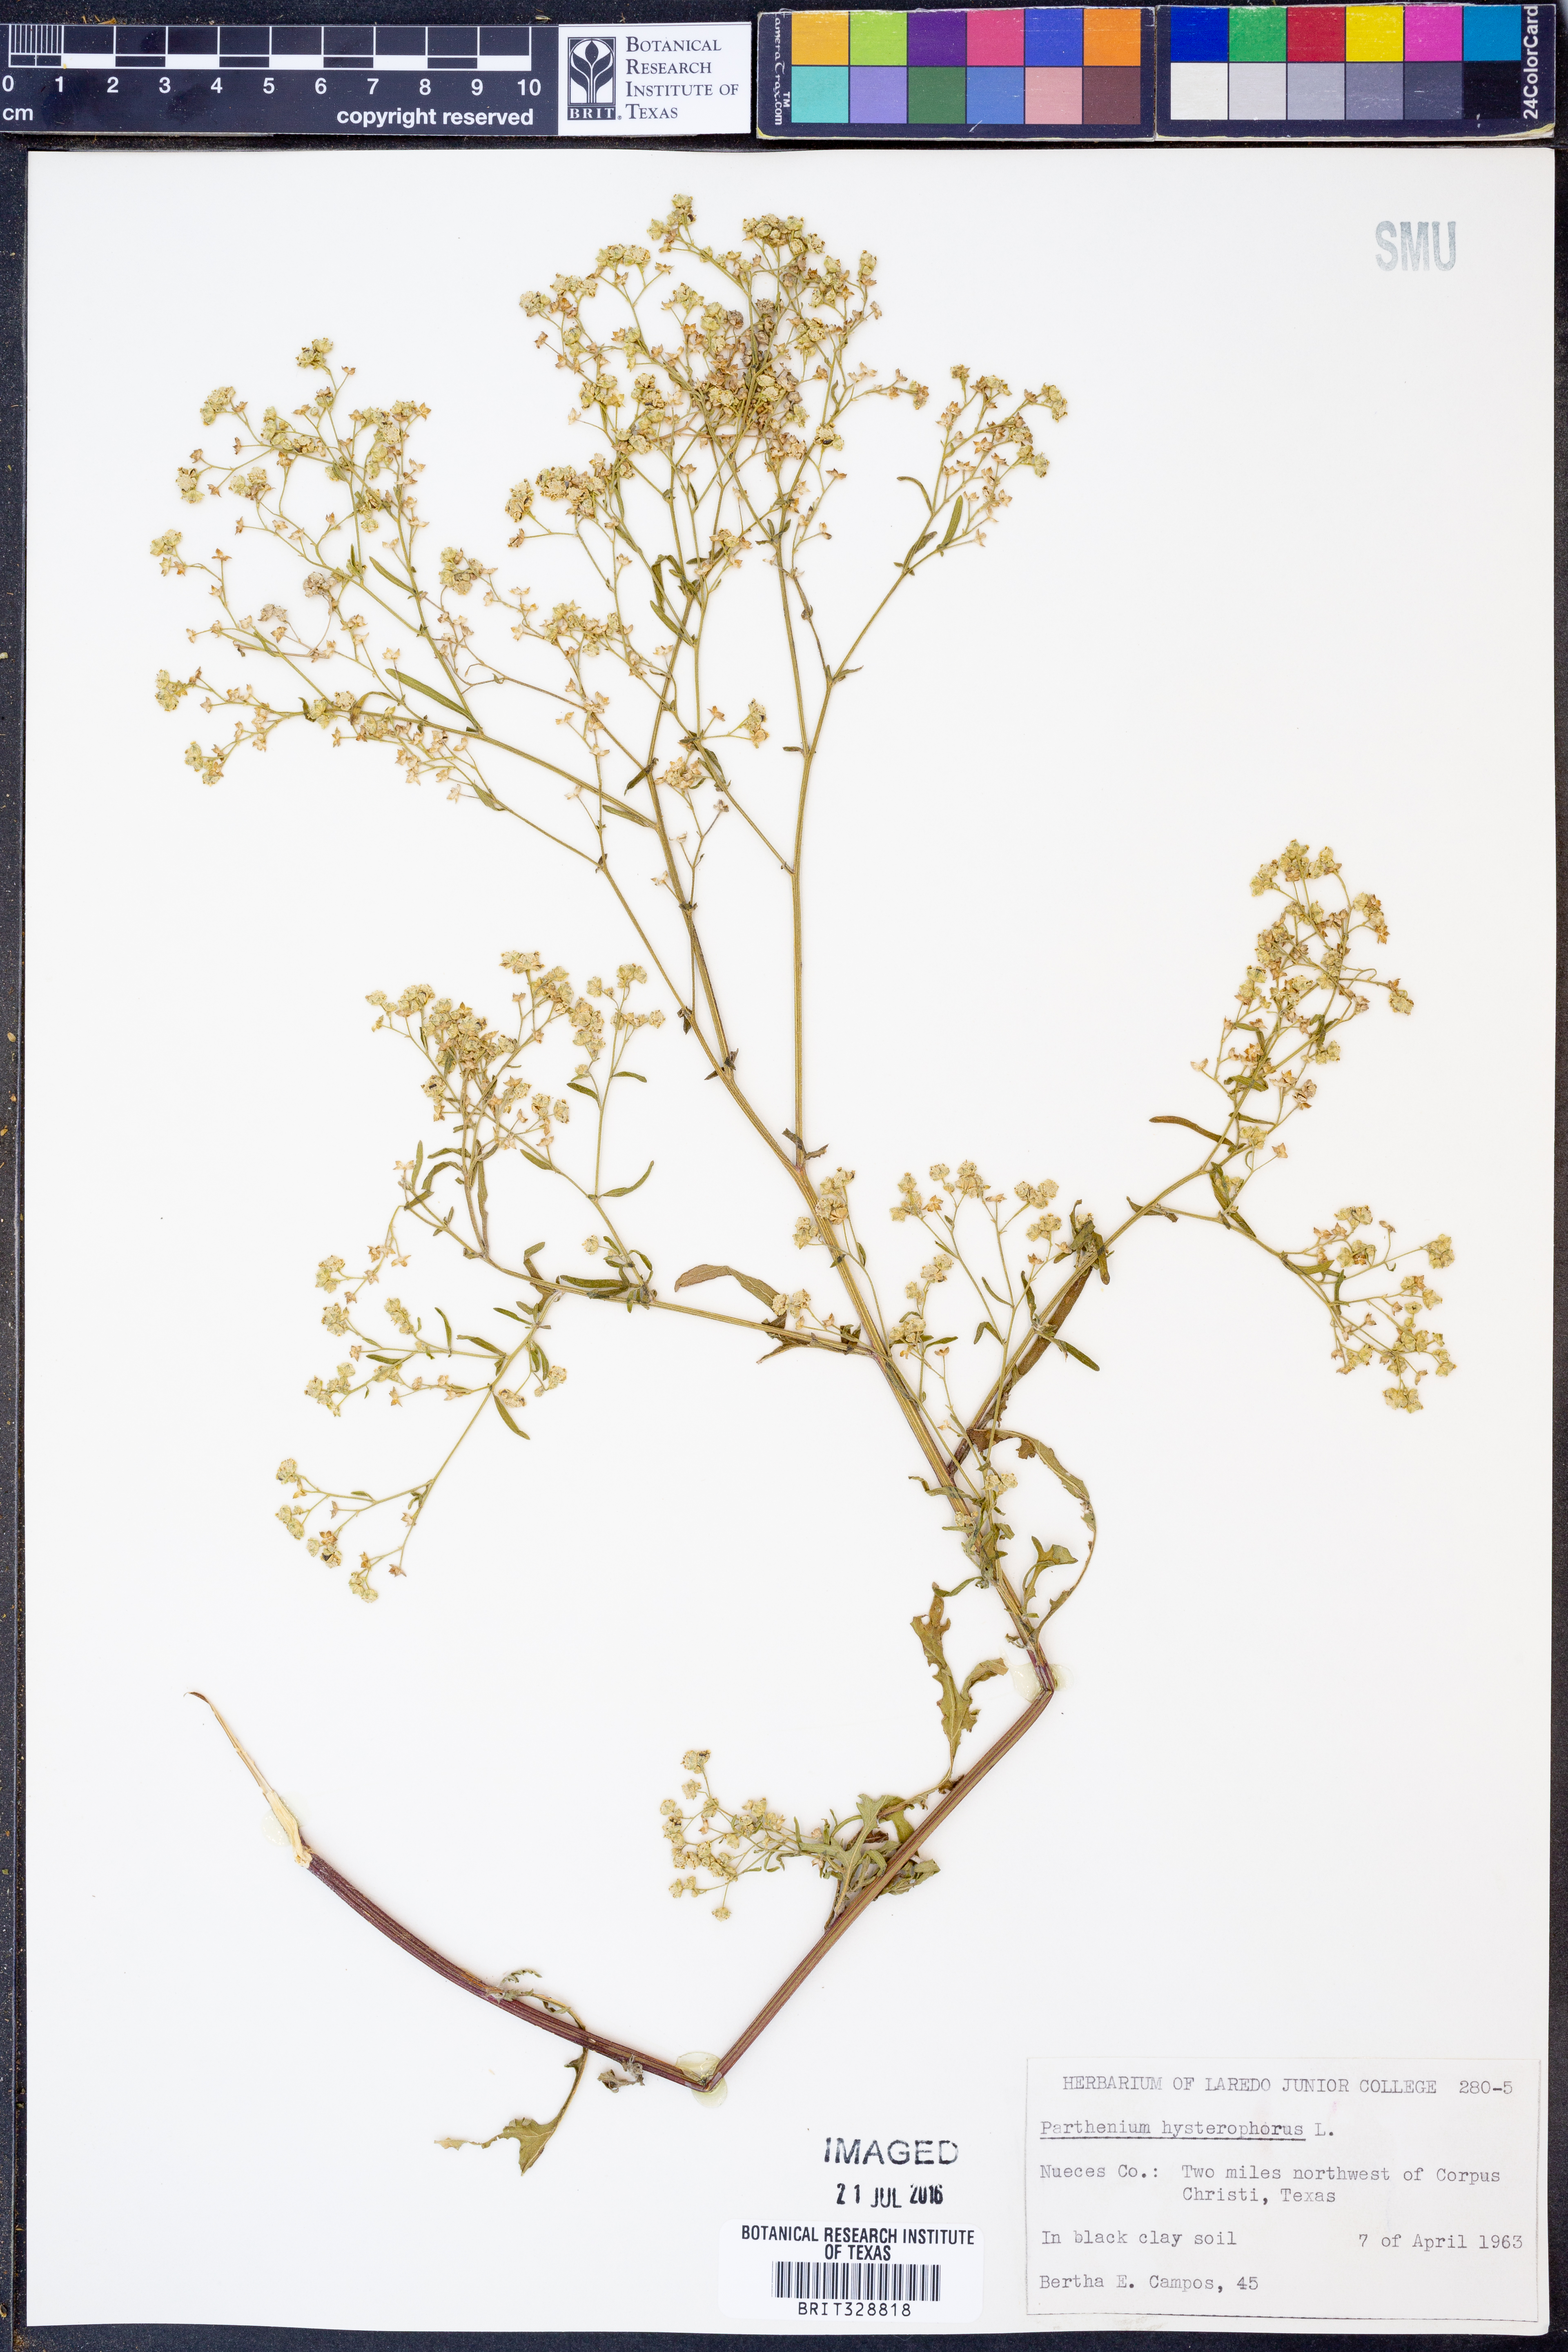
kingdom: Plantae
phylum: Tracheophyta
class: Magnoliopsida
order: Asterales
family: Asteraceae
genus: Parthenium
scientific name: Parthenium hysterophorus
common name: Santa maria feverfew
